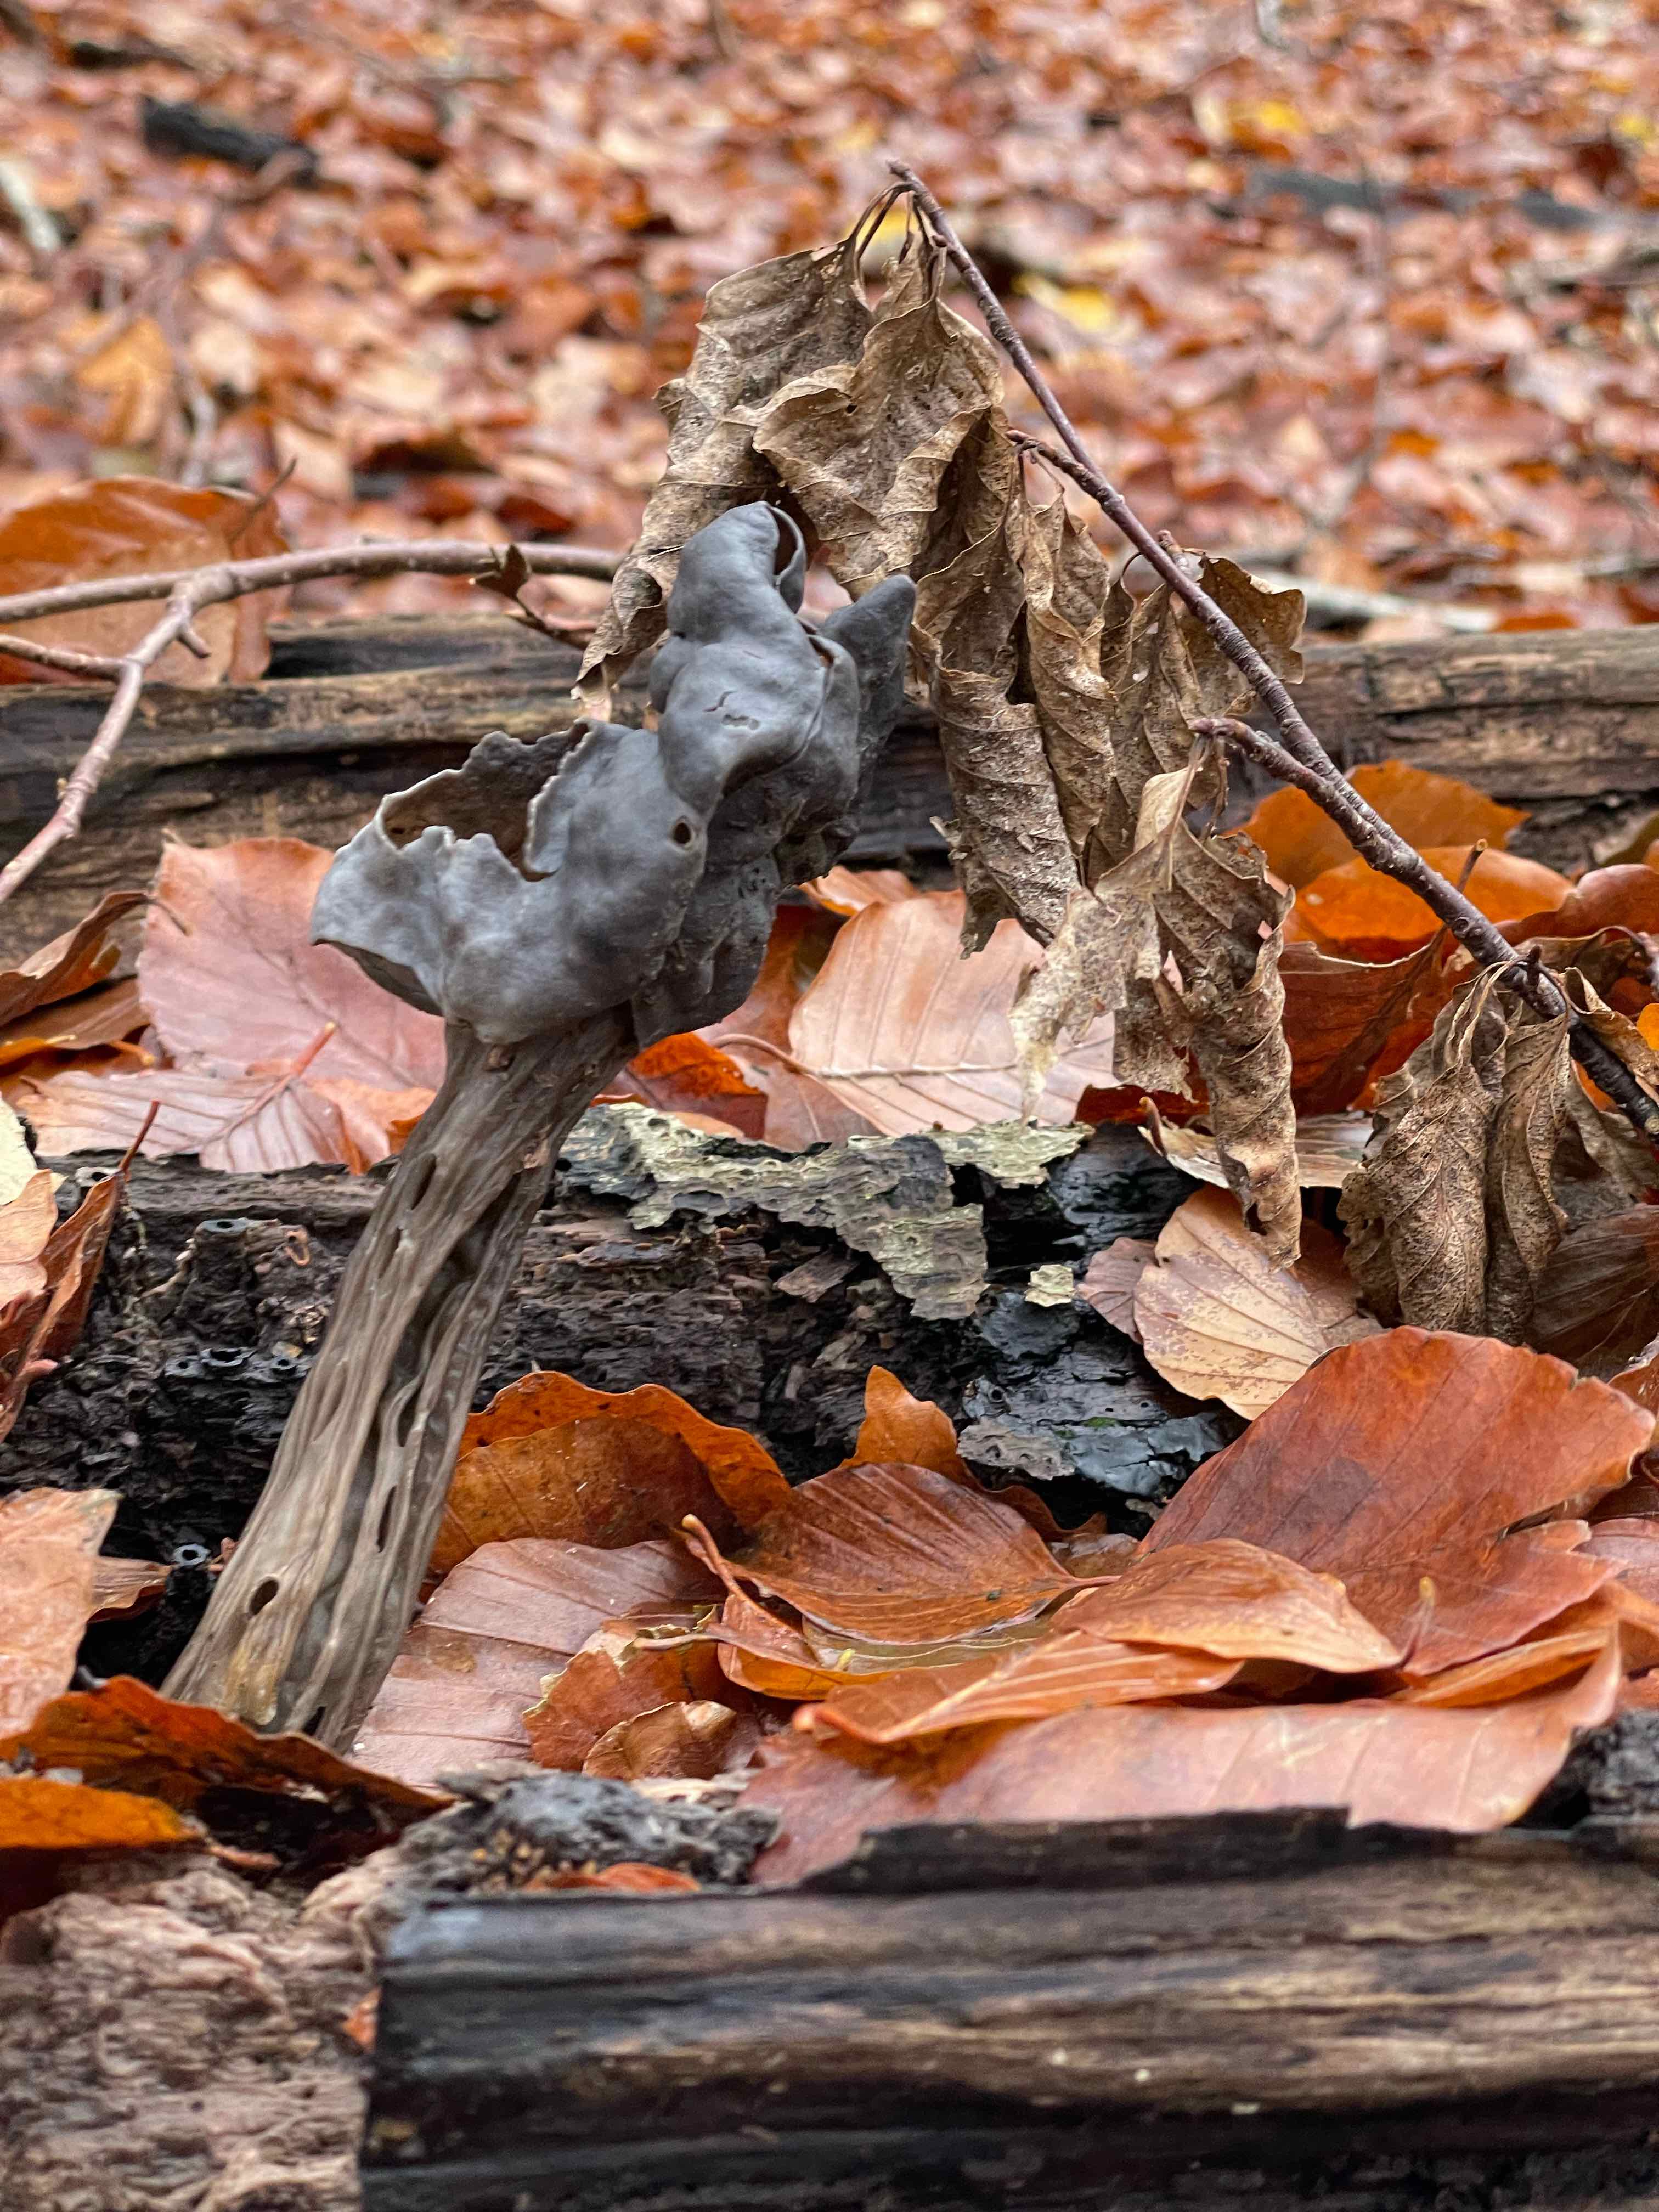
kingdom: Fungi
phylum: Ascomycota
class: Pezizomycetes
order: Pezizales
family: Helvellaceae
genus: Helvella
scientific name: Helvella lacunosa
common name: grubet foldhat
